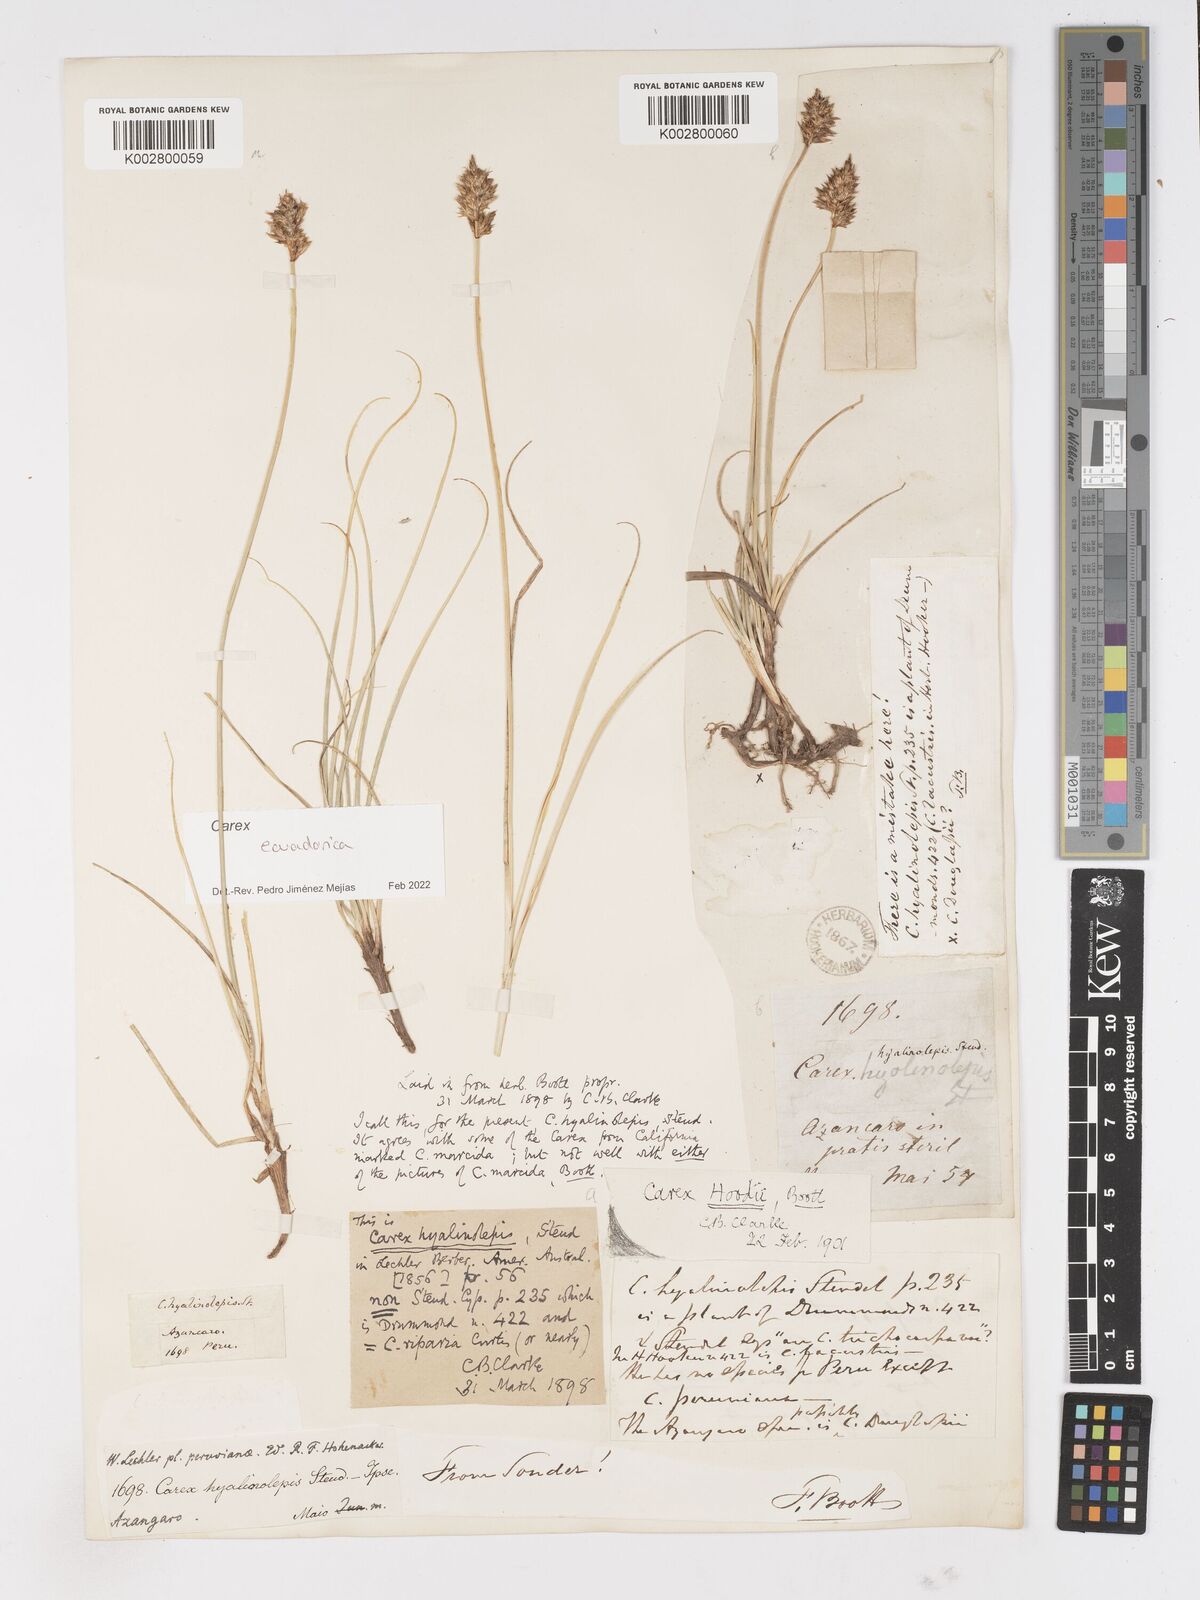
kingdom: Plantae
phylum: Tracheophyta
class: Liliopsida
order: Poales
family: Cyperaceae
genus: Carex
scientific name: Carex ecuadorica
